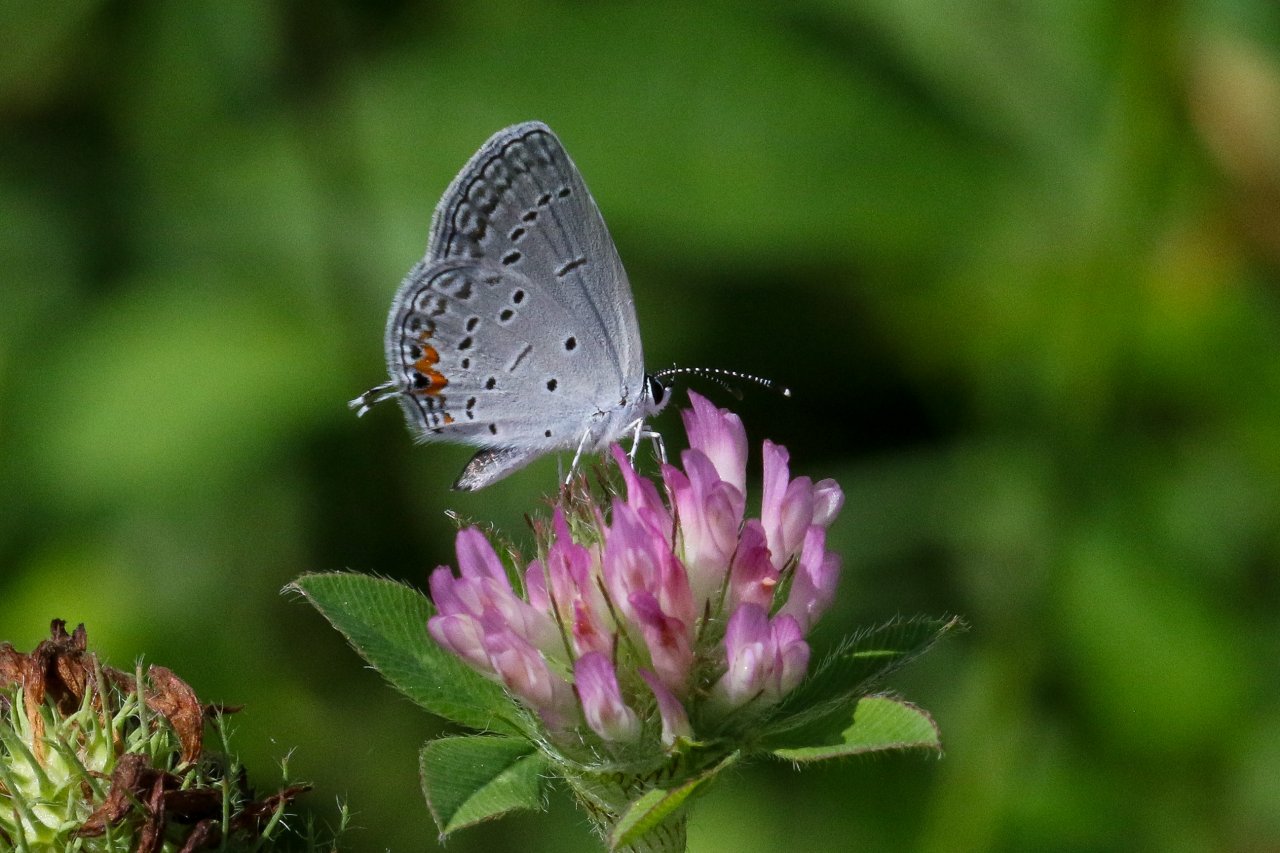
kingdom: Animalia
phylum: Arthropoda
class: Insecta
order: Lepidoptera
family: Lycaenidae
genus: Elkalyce
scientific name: Elkalyce comyntas
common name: Eastern Tailed-Blue
